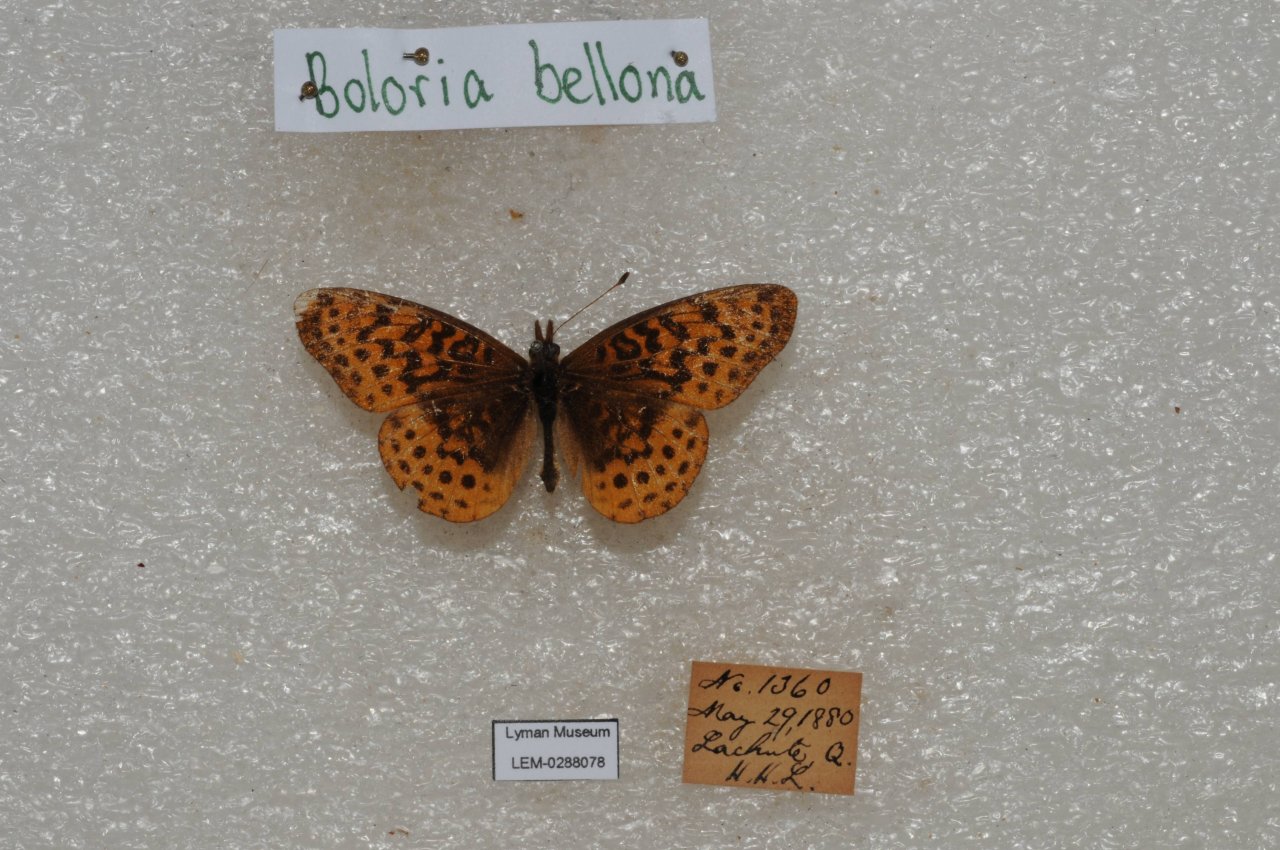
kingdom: Animalia
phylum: Arthropoda
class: Insecta
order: Lepidoptera
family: Nymphalidae
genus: Clossiana
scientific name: Clossiana toddi
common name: Meadow Fritillary
